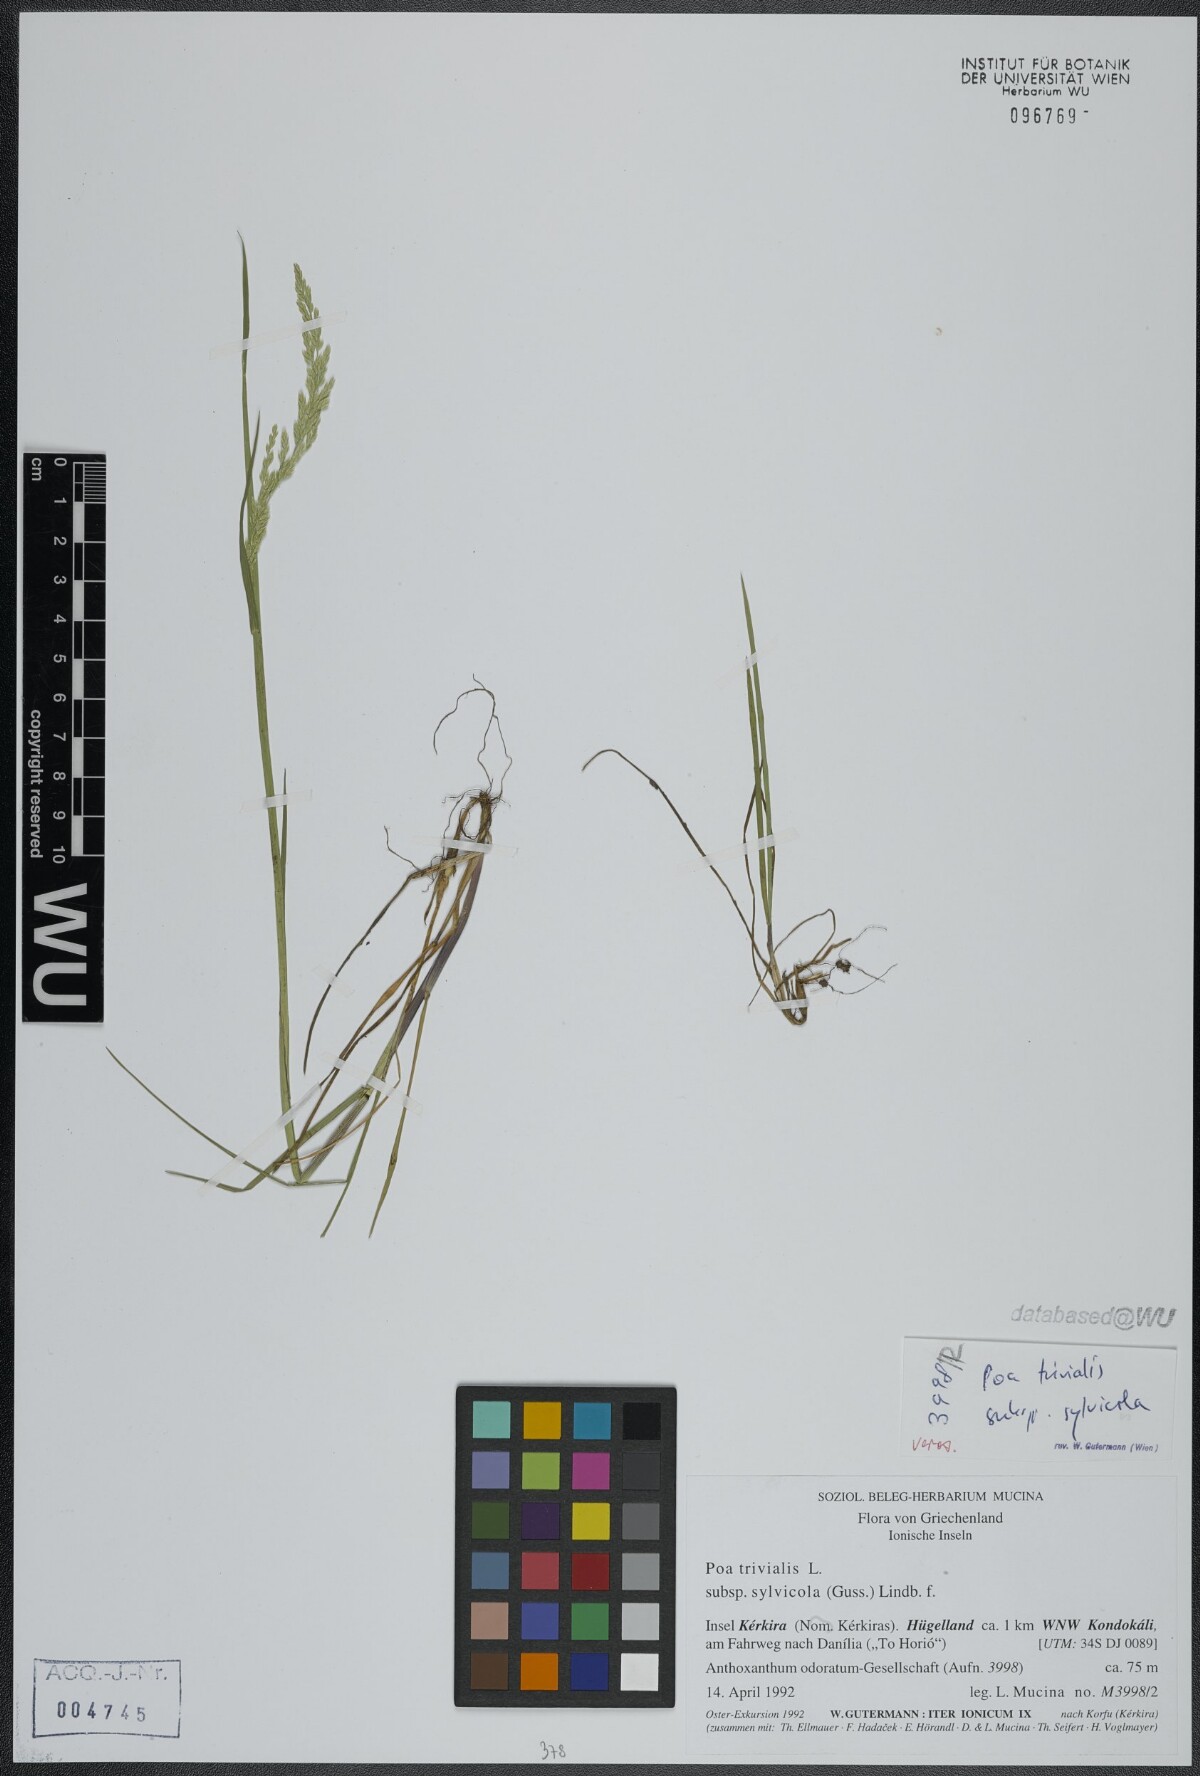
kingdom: Plantae
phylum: Tracheophyta
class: Liliopsida
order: Poales
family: Poaceae
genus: Poa
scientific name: Poa trivialis
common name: Rough bluegrass
